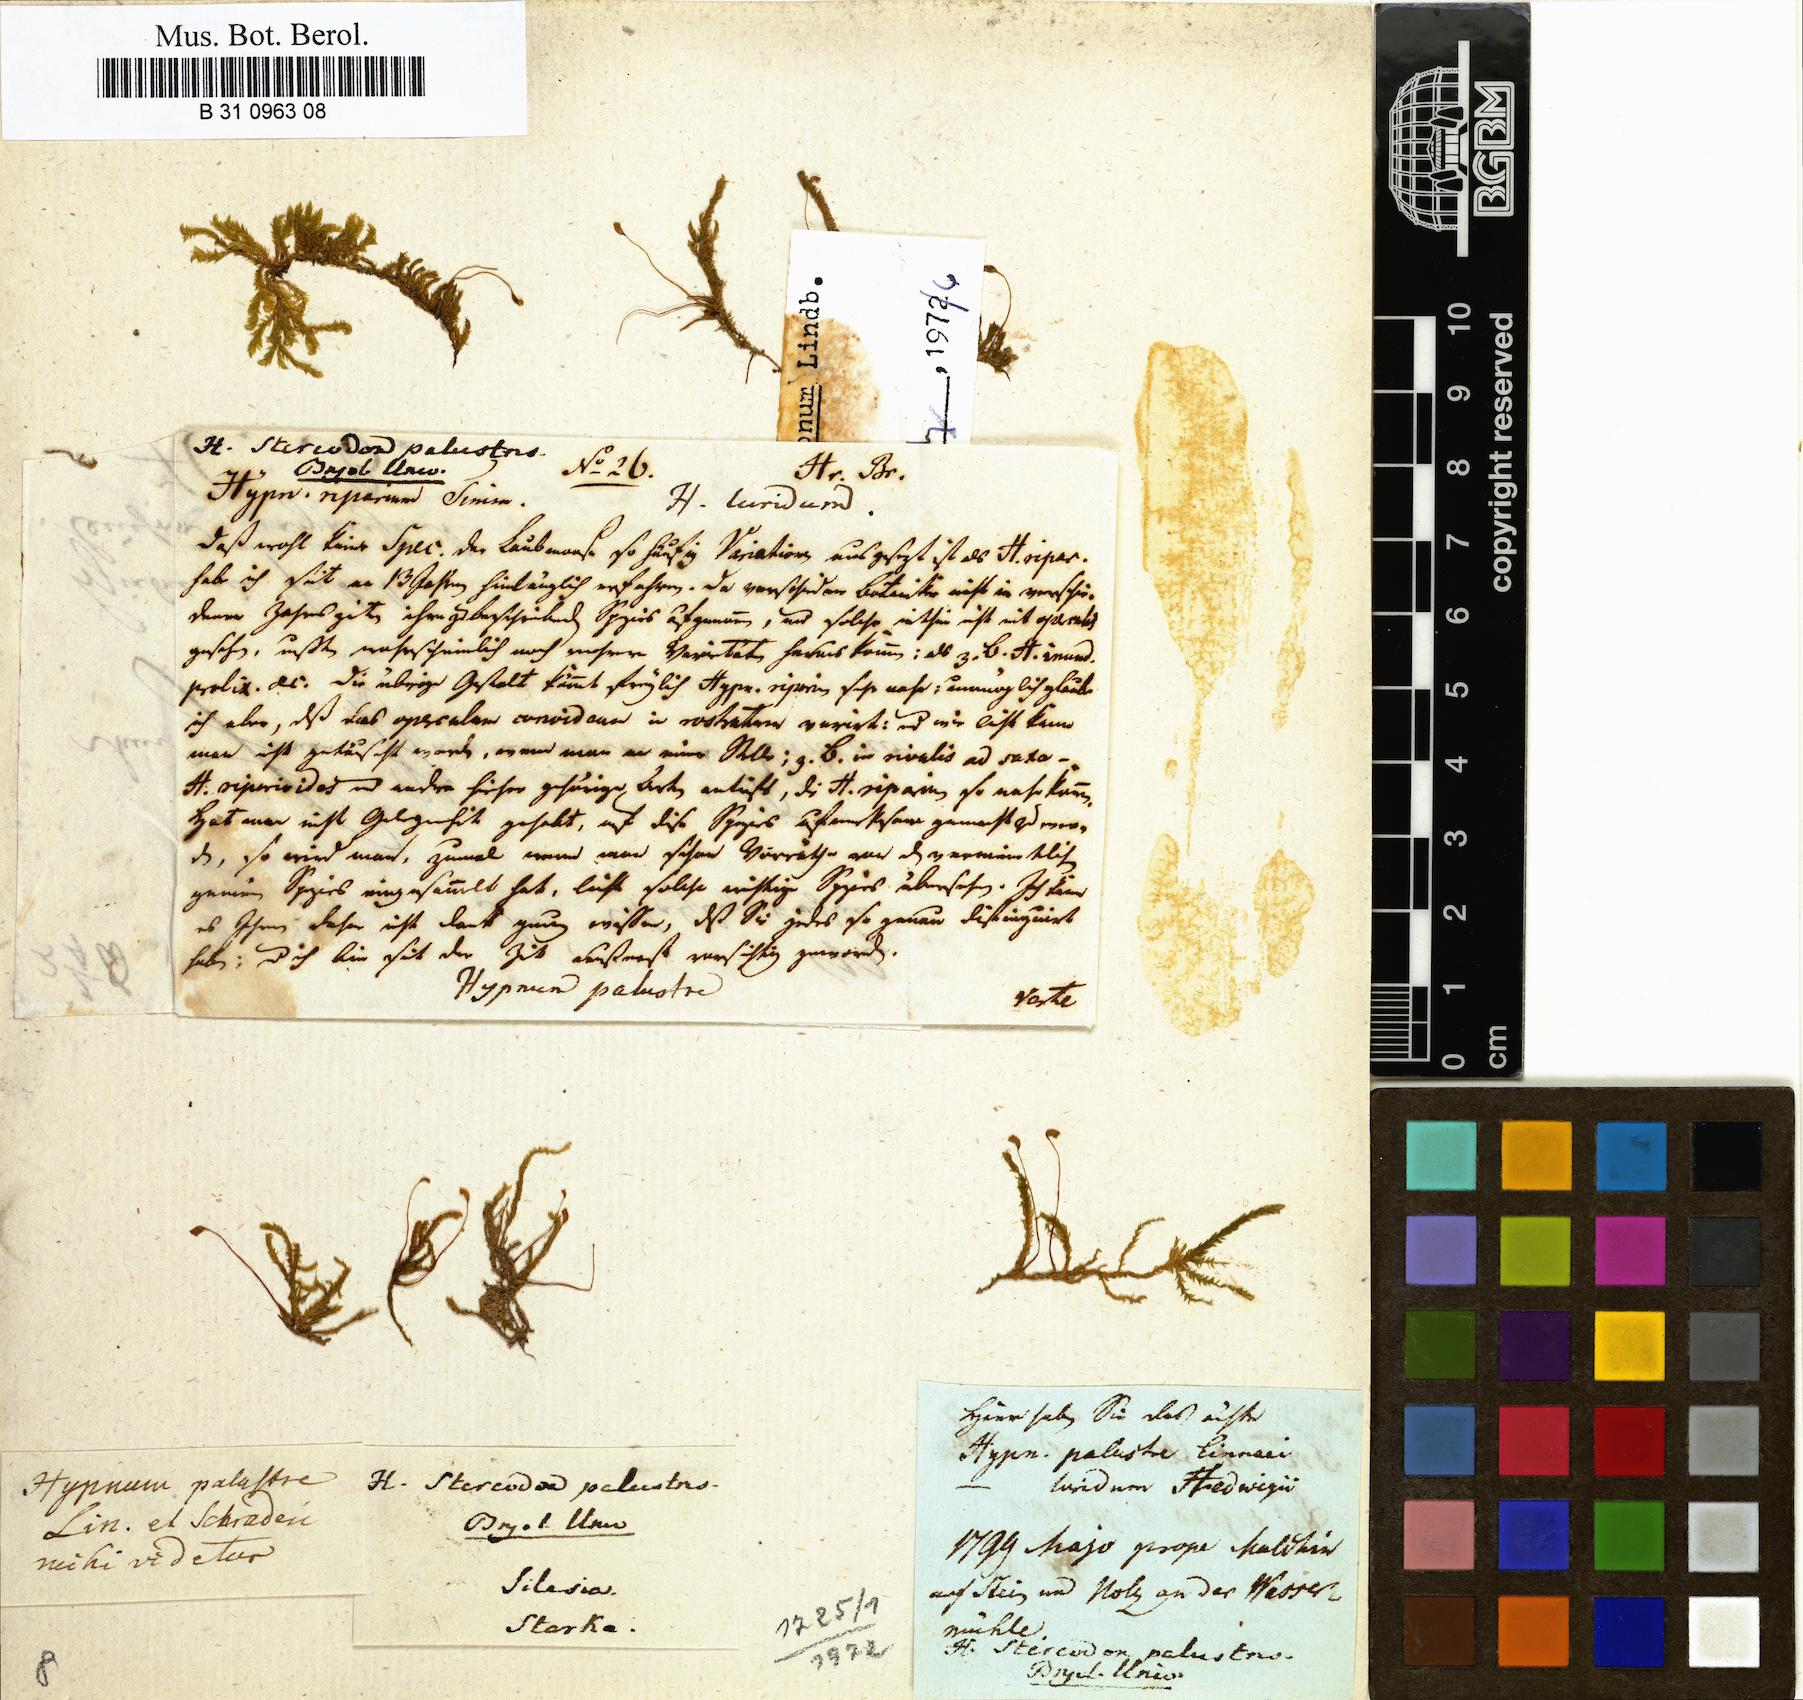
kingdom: Plantae
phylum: Bryophyta
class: Bryopsida
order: Hypnales
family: Amblystegiaceae
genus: Hygrohypnum
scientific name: Hygrohypnum luridum
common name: Drab brook moss
